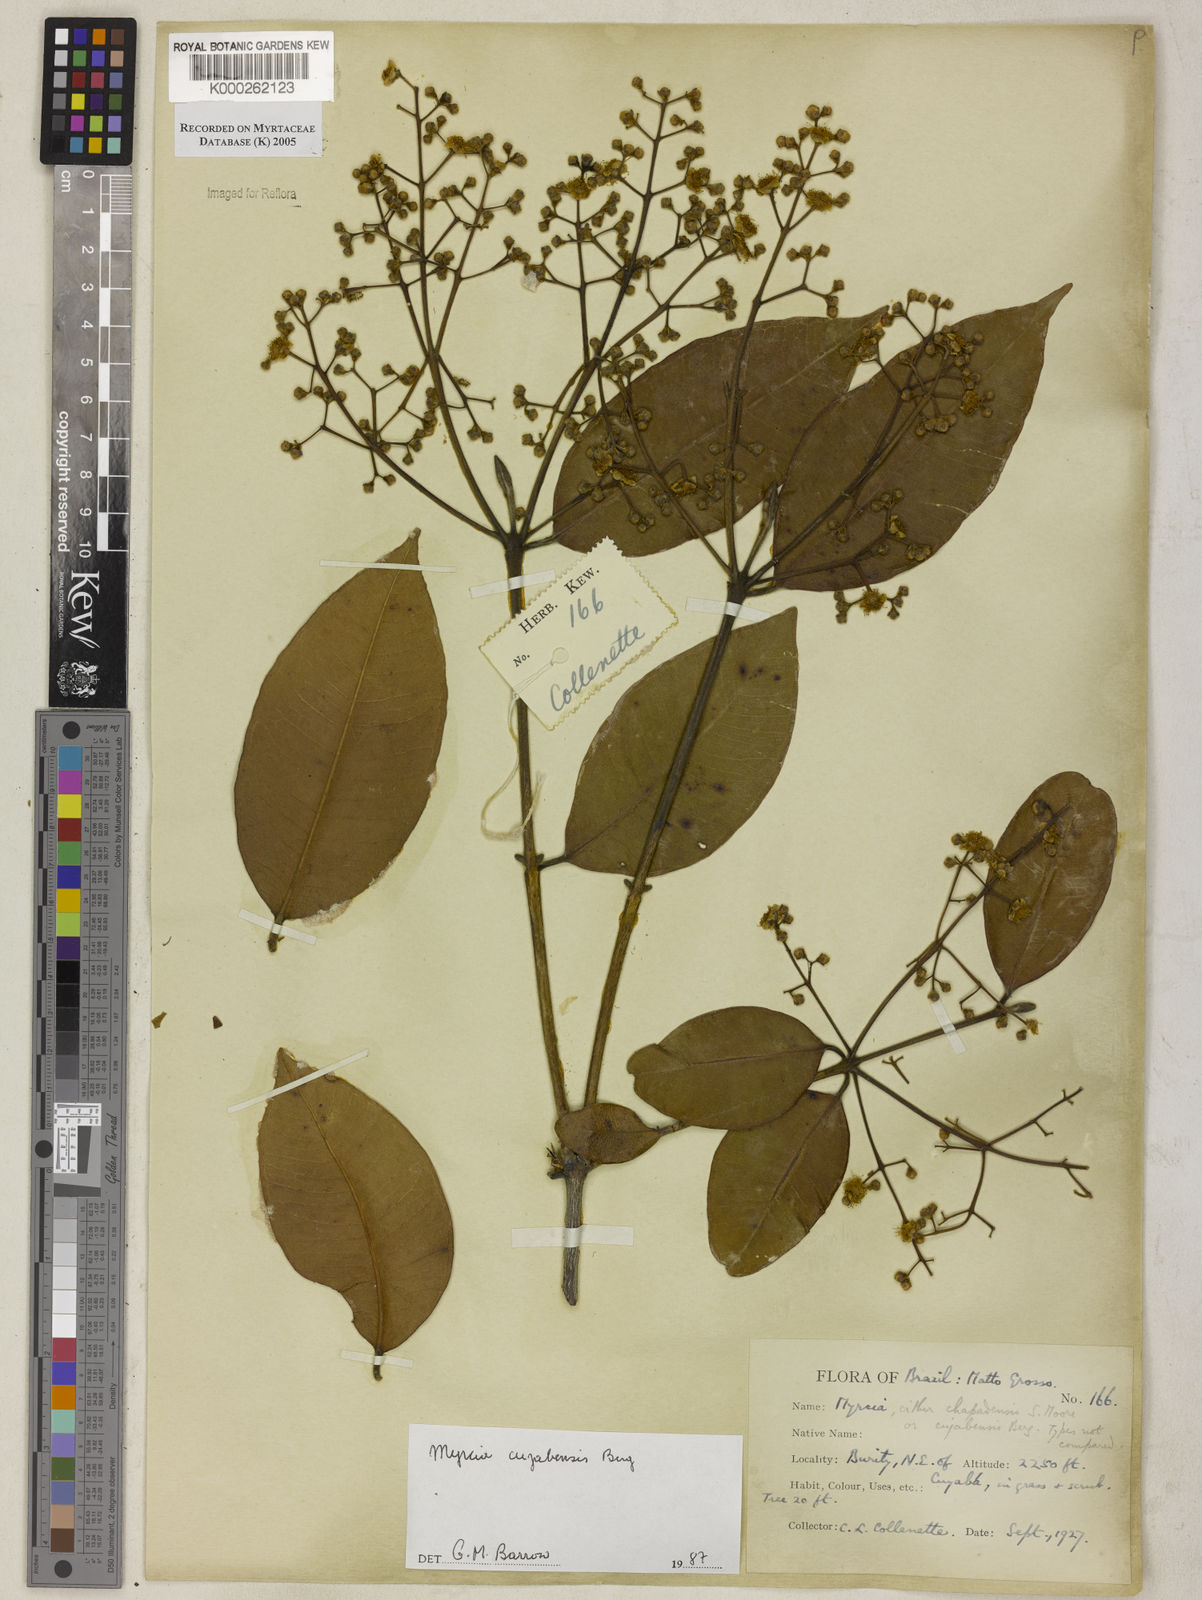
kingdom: Plantae
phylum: Tracheophyta
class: Magnoliopsida
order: Myrtales
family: Myrtaceae
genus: Myrcia
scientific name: Myrcia cujabensis
